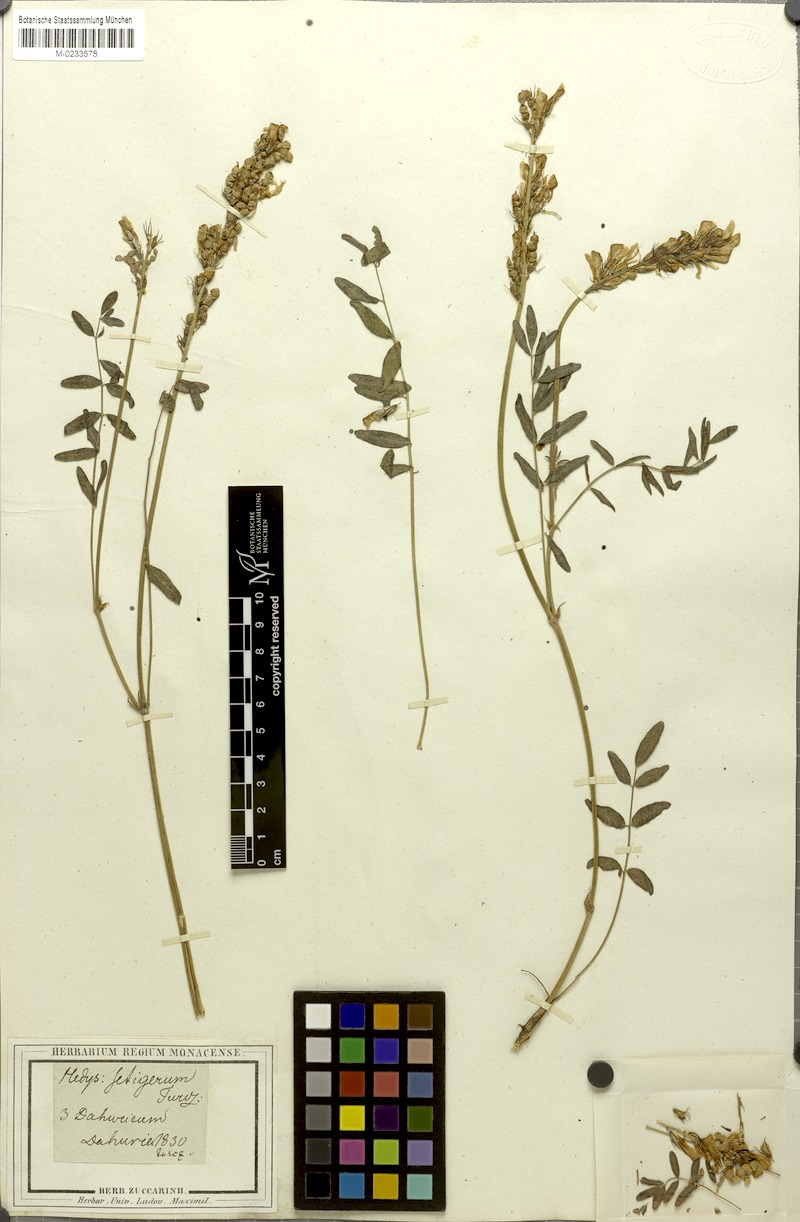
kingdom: Plantae
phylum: Tracheophyta
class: Magnoliopsida
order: Fabales
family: Fabaceae
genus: Hedysarum
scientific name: Hedysarum setigerum
